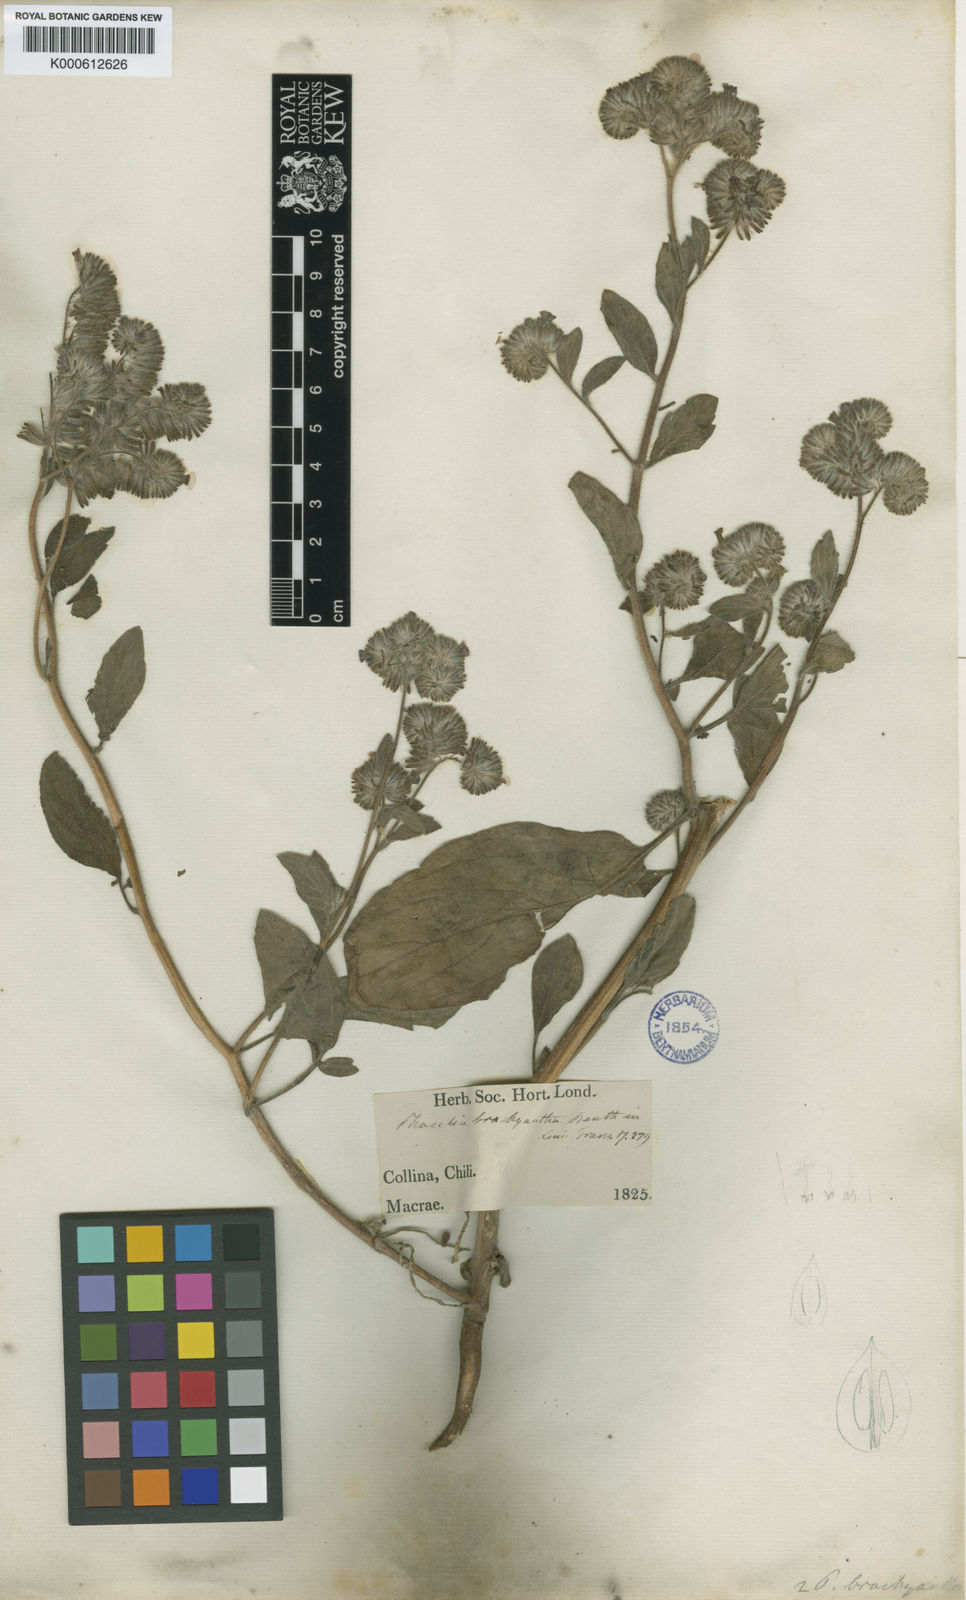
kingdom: Plantae
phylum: Tracheophyta
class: Magnoliopsida
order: Boraginales
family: Hydrophyllaceae
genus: Phacelia
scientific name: Phacelia brachyantha
